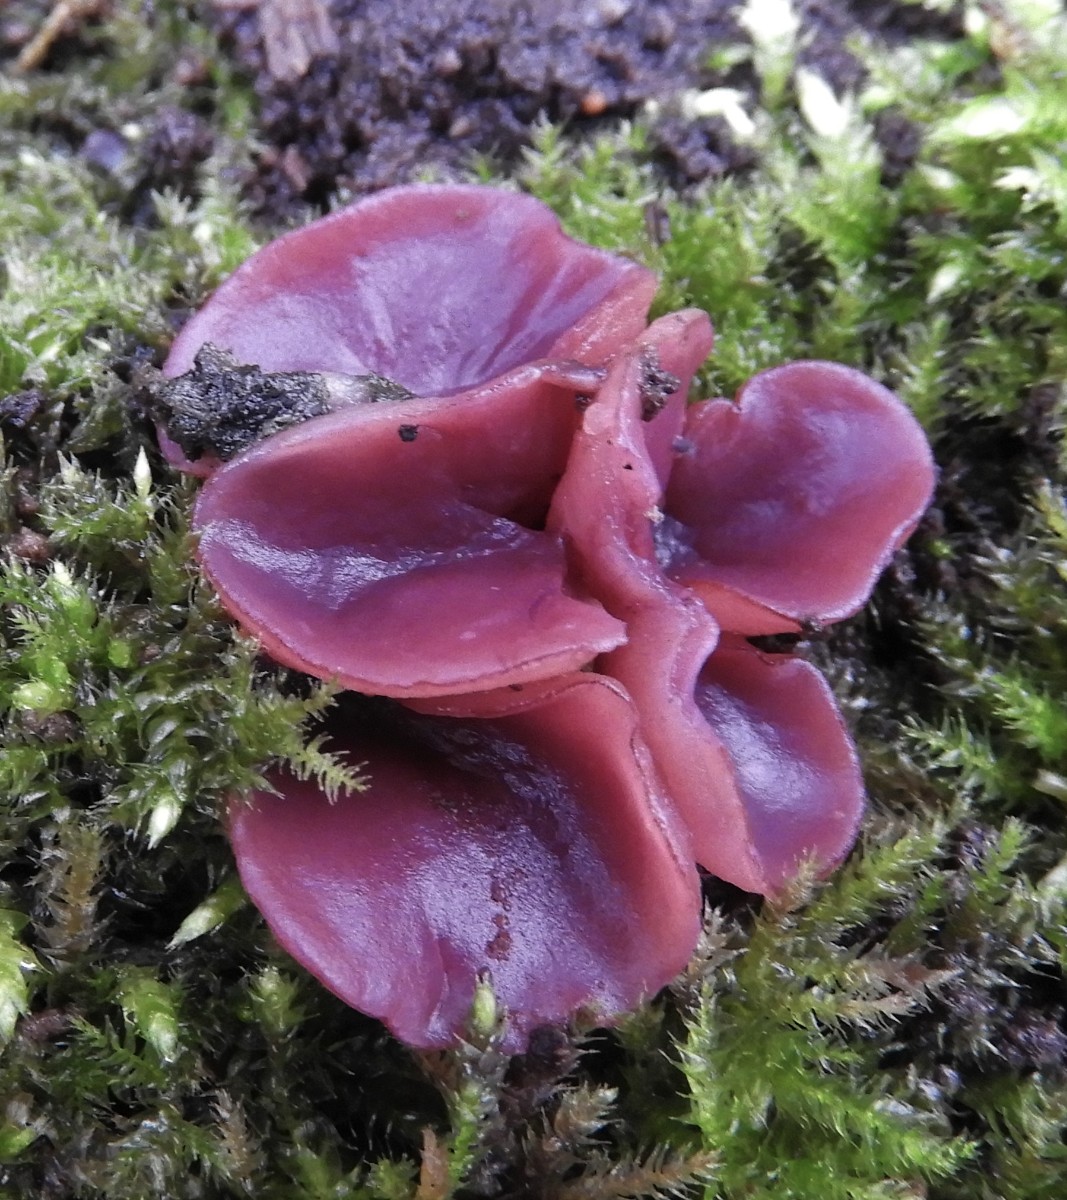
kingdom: Fungi
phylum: Ascomycota
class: Leotiomycetes
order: Helotiales
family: Gelatinodiscaceae
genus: Ascocoryne
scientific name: Ascocoryne cylichnium
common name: stor sejskive
